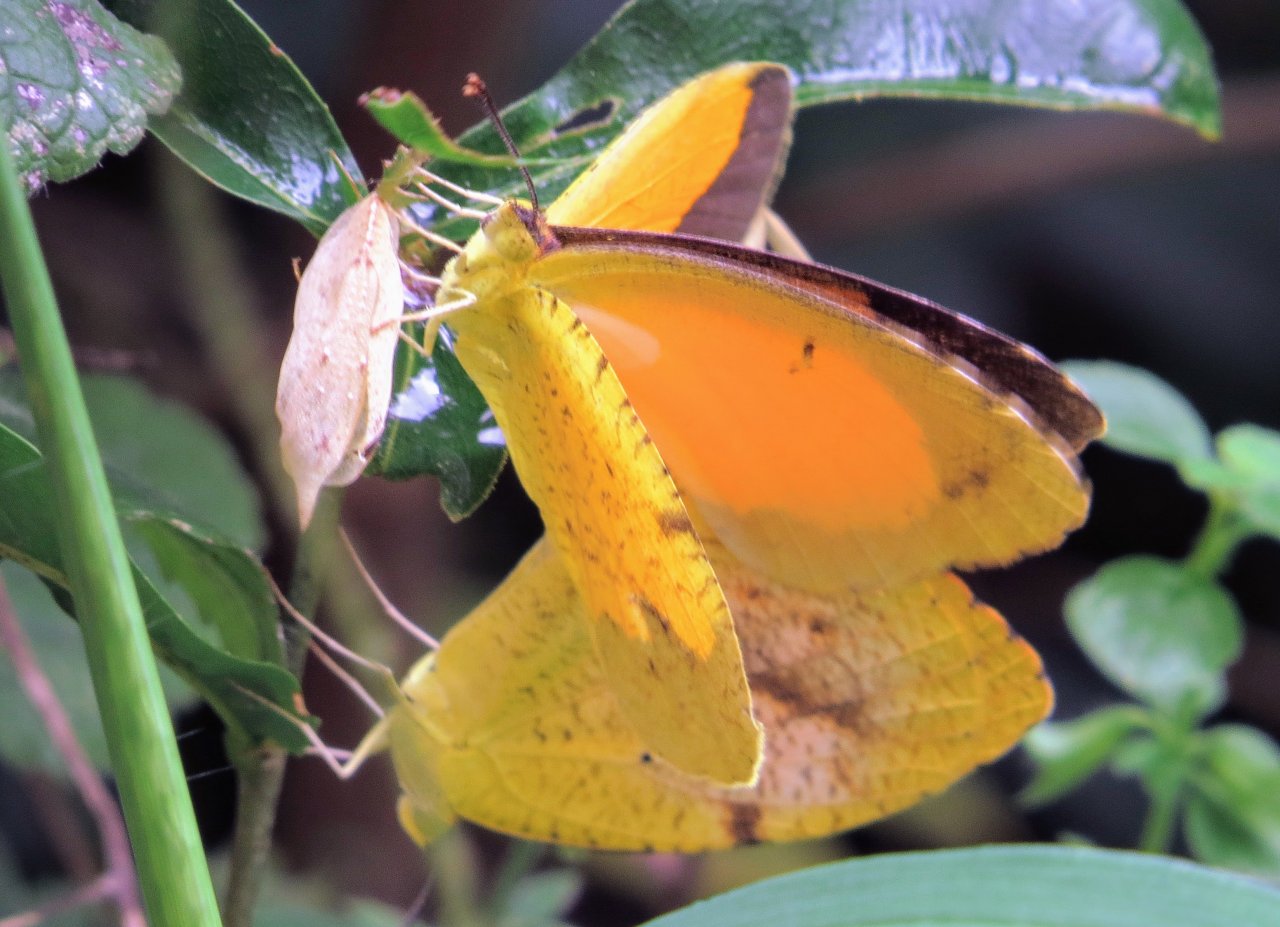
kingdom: Animalia
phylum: Arthropoda
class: Insecta
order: Lepidoptera
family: Pieridae
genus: Abaeis
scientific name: Abaeis nicippe
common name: Sleepy Orange
